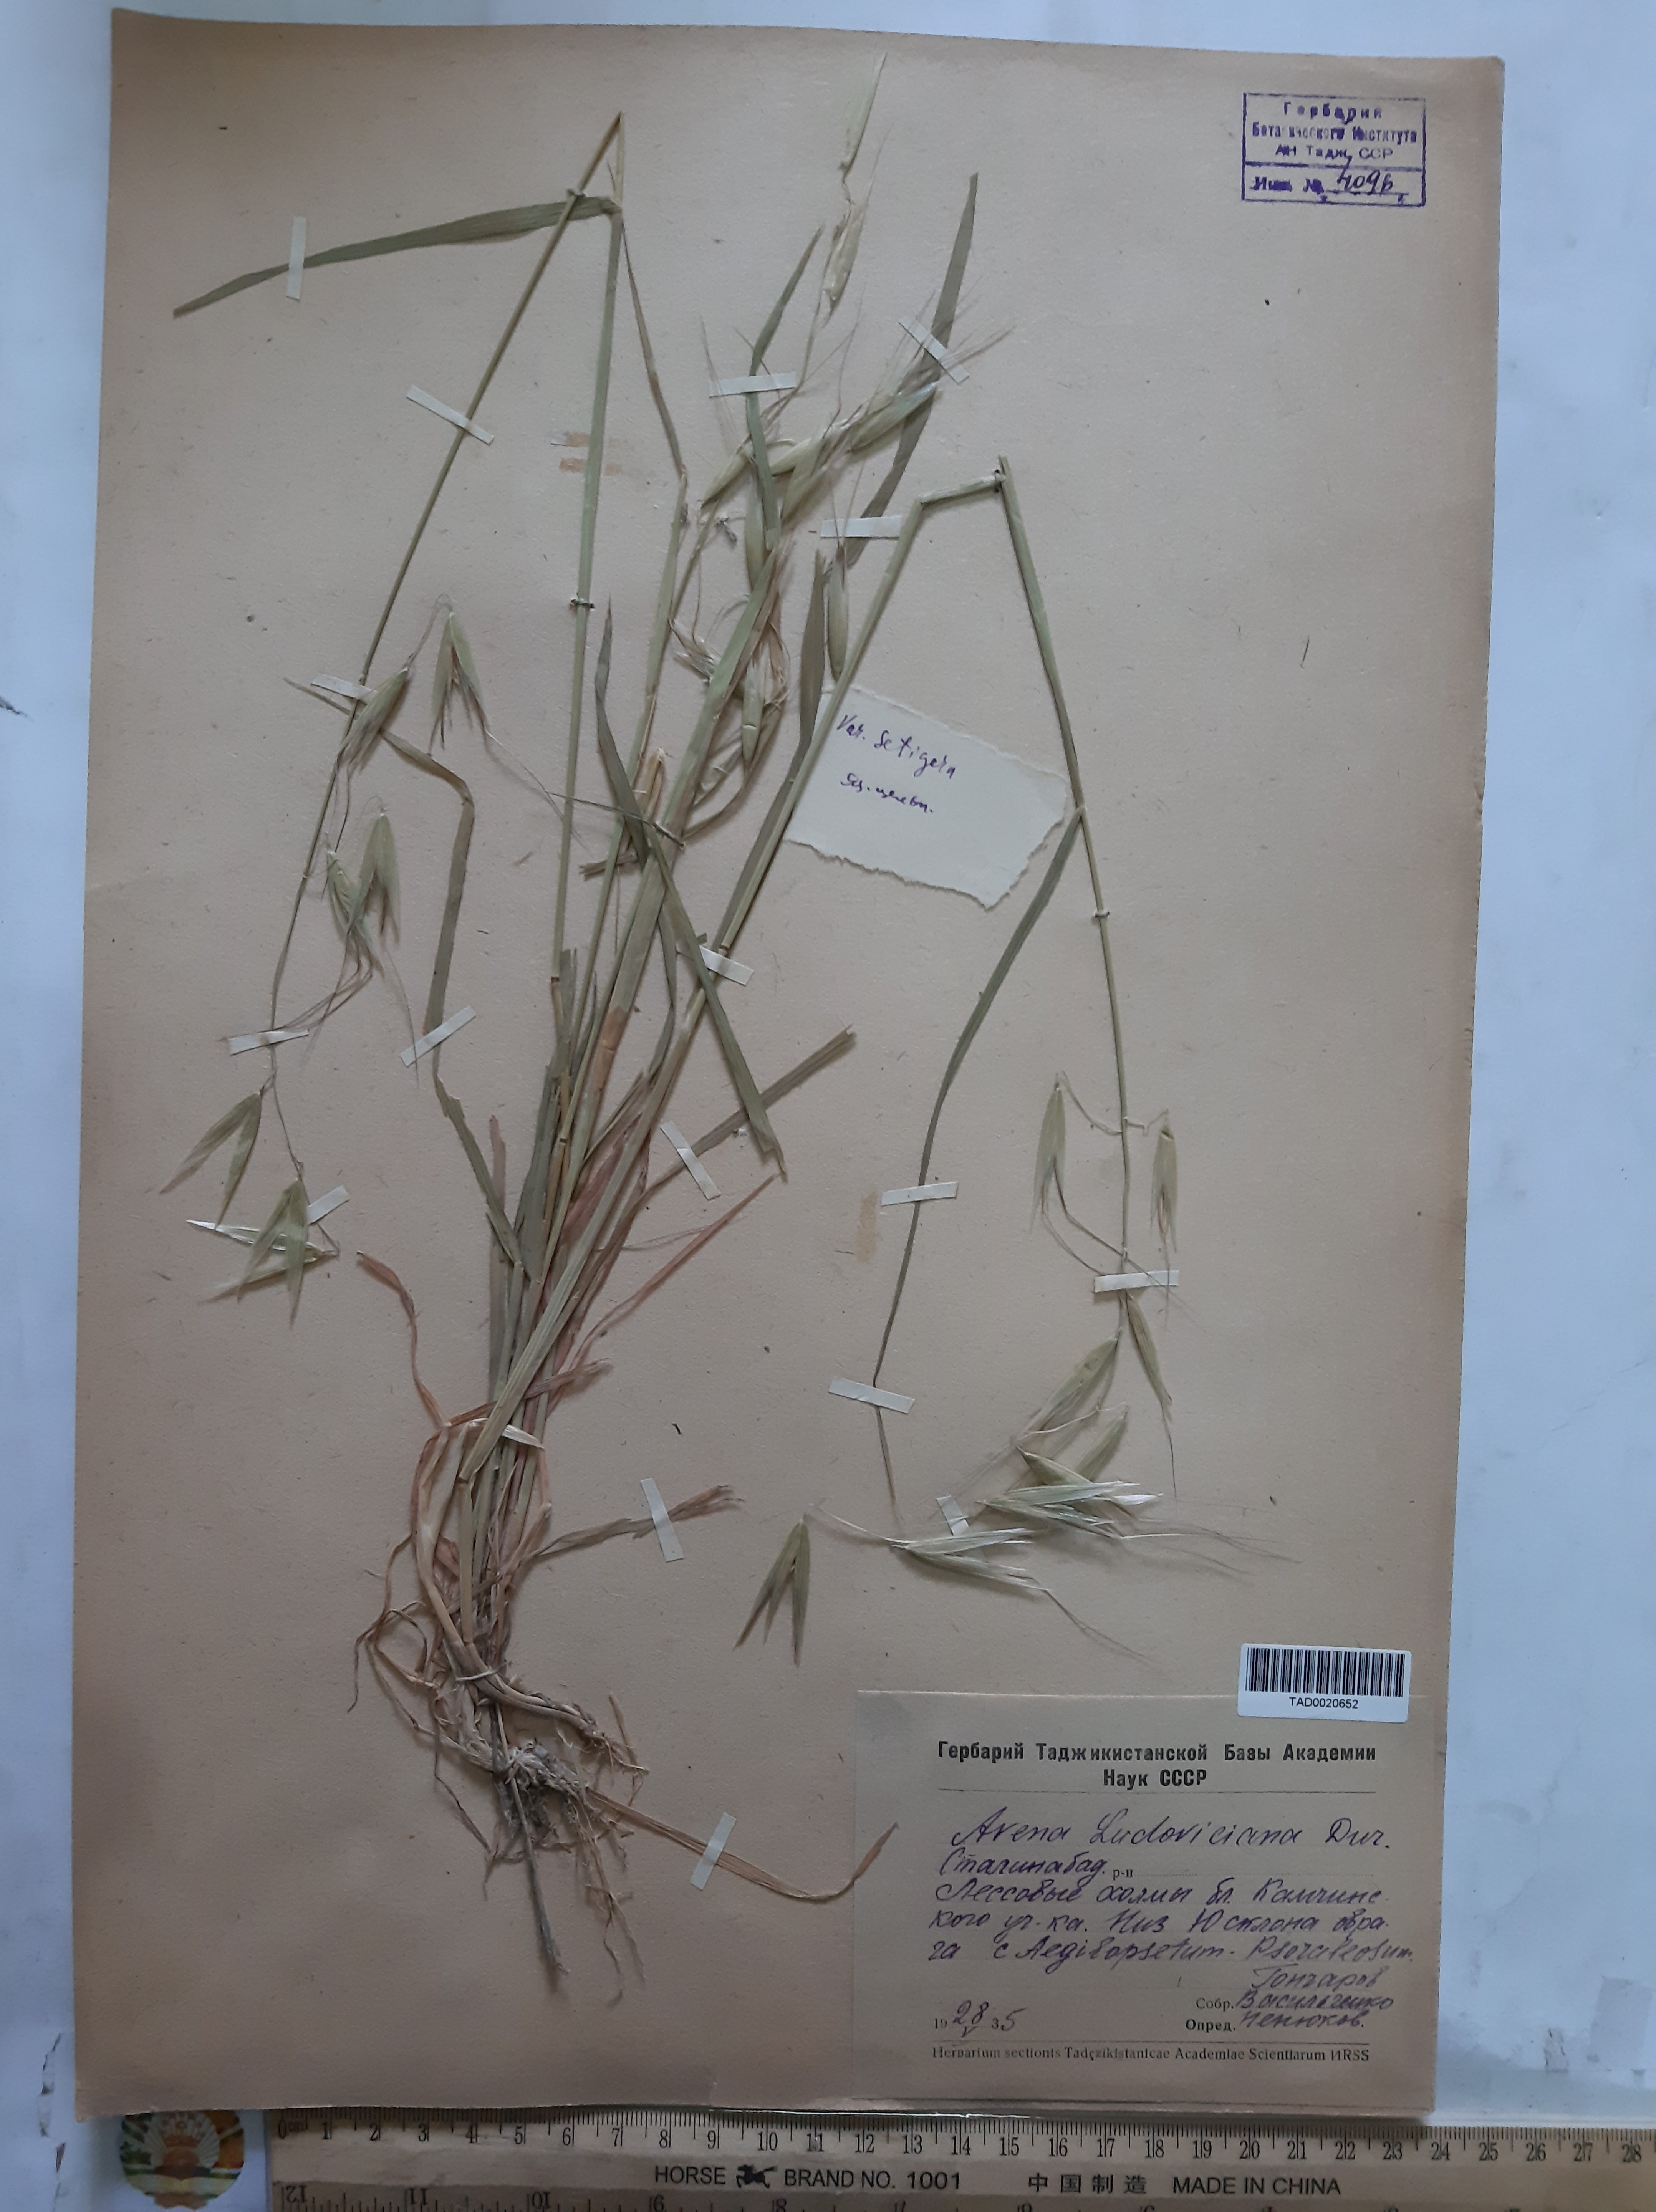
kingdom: Plantae
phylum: Tracheophyta
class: Liliopsida
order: Poales
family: Poaceae
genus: Avena
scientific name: Avena sterilis
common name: Animated oat
